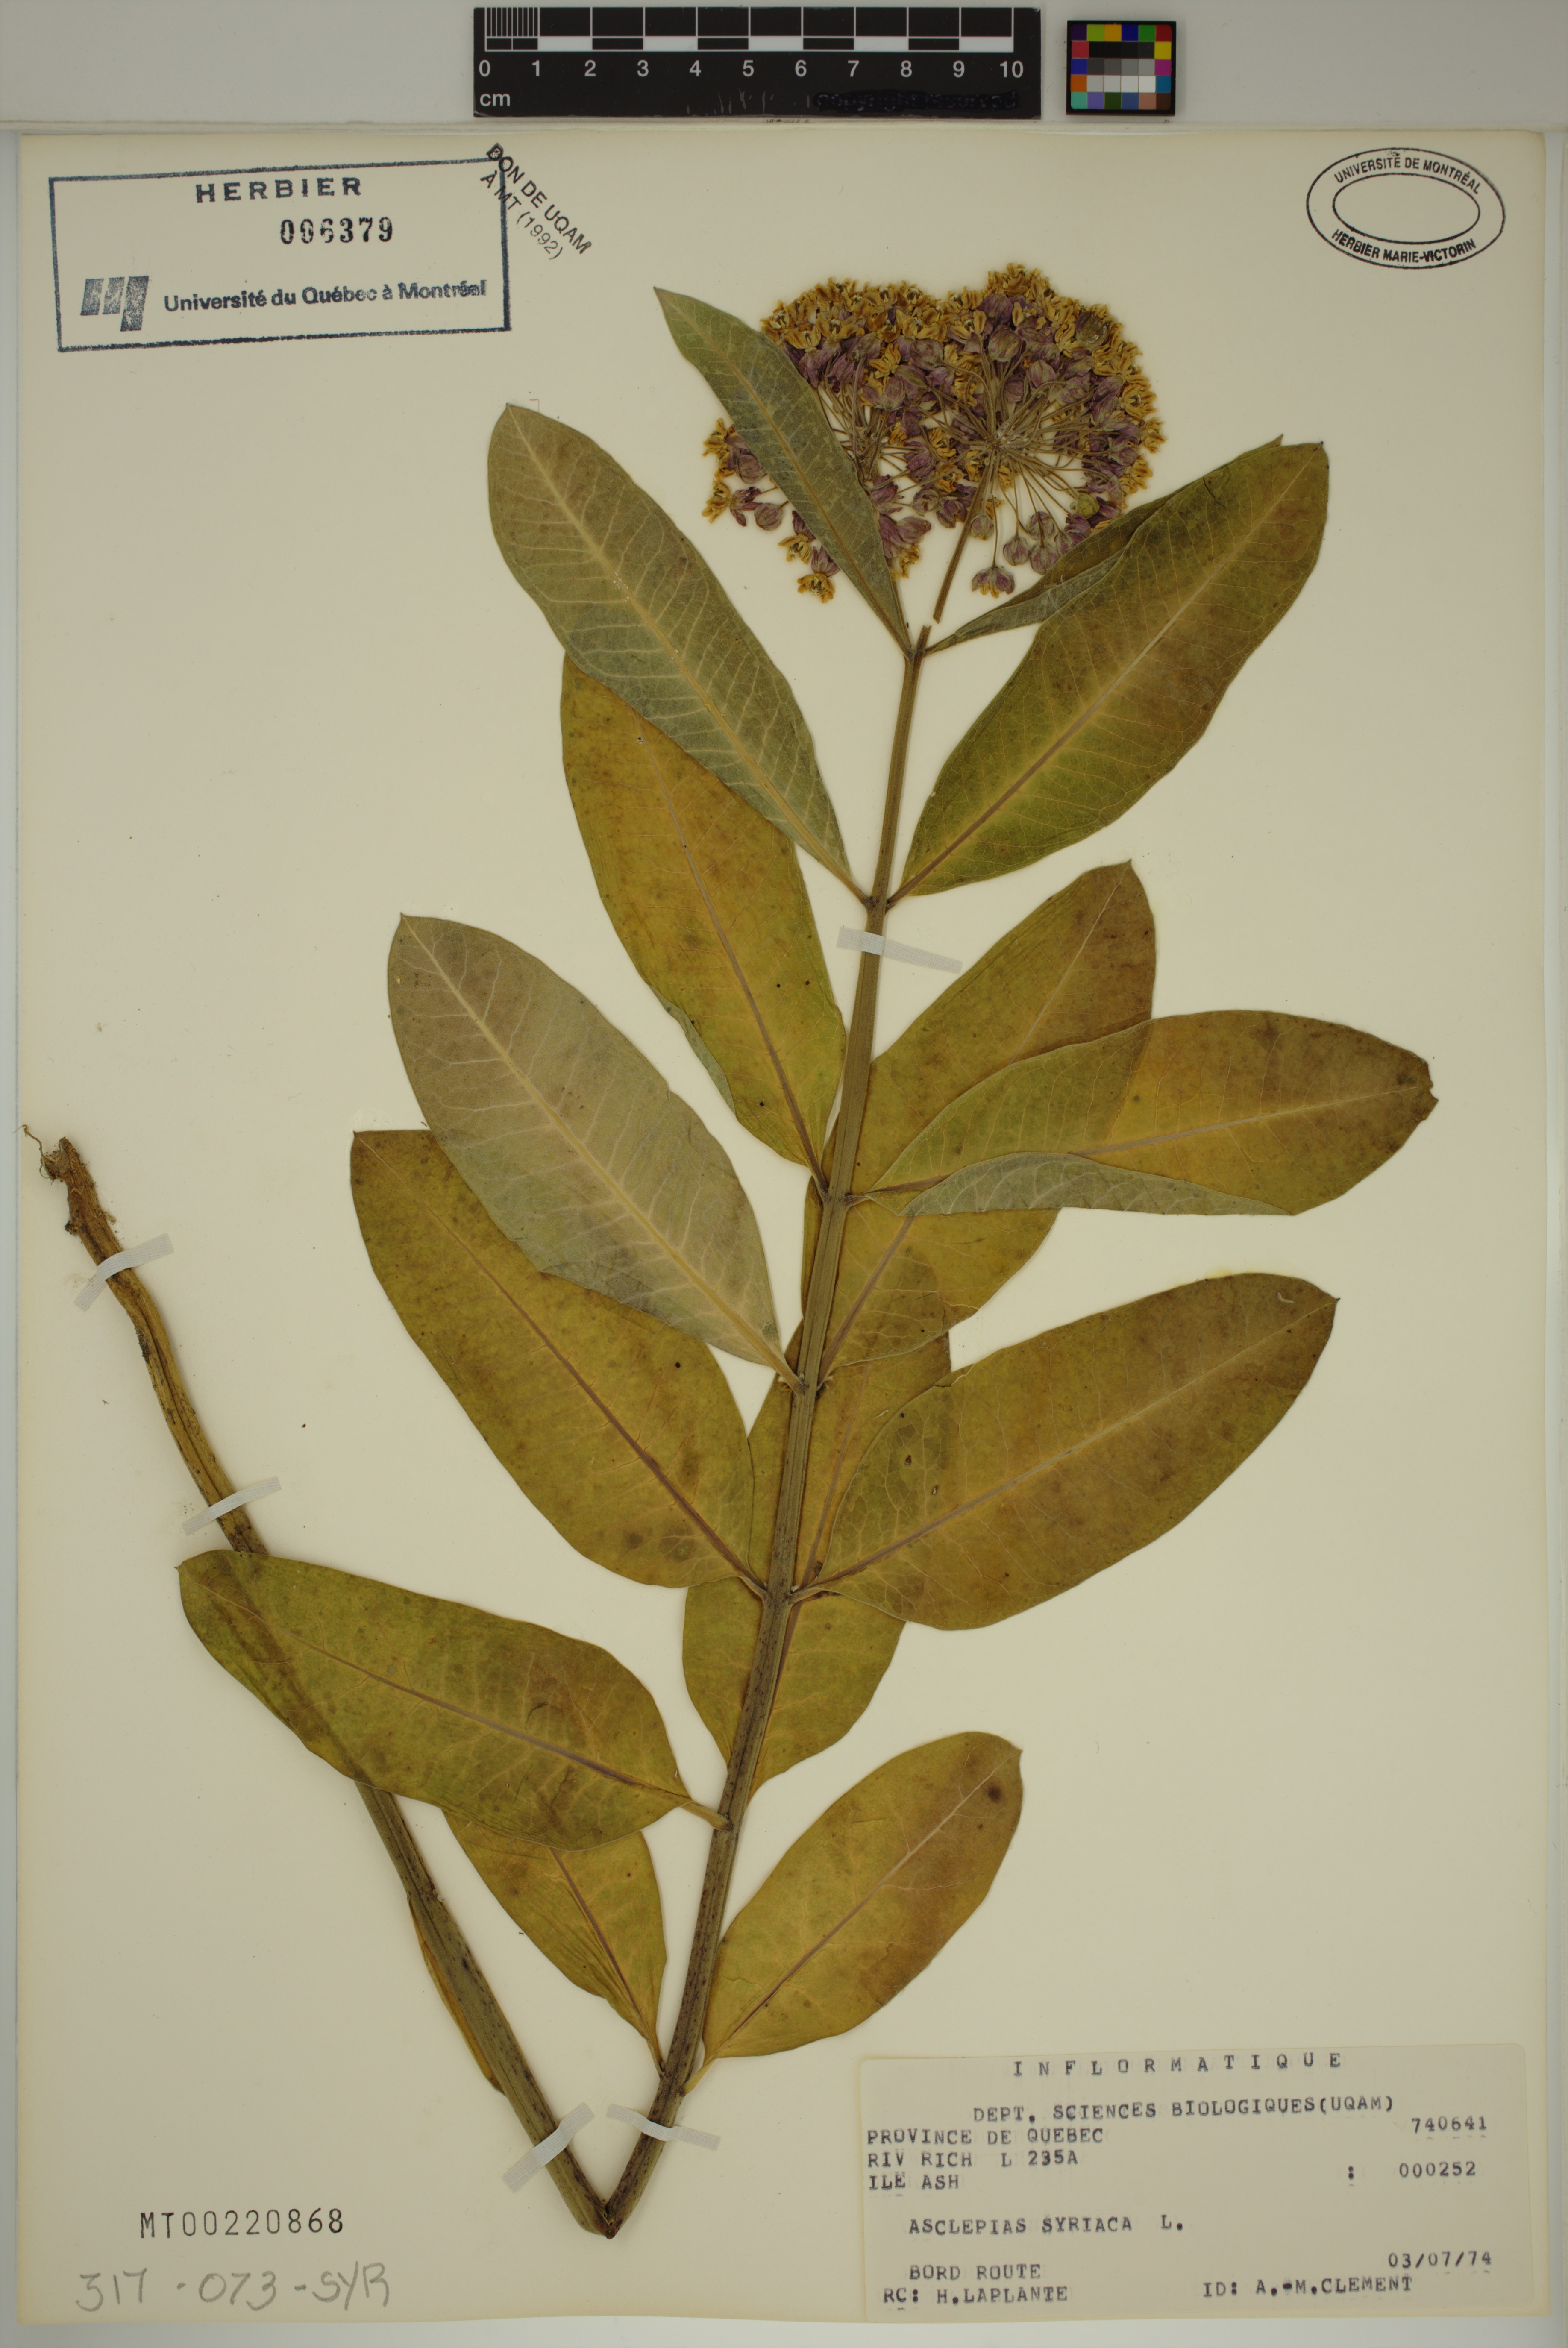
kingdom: Plantae
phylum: Tracheophyta
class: Magnoliopsida
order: Gentianales
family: Apocynaceae
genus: Asclepias
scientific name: Asclepias syriaca
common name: Common milkweed
